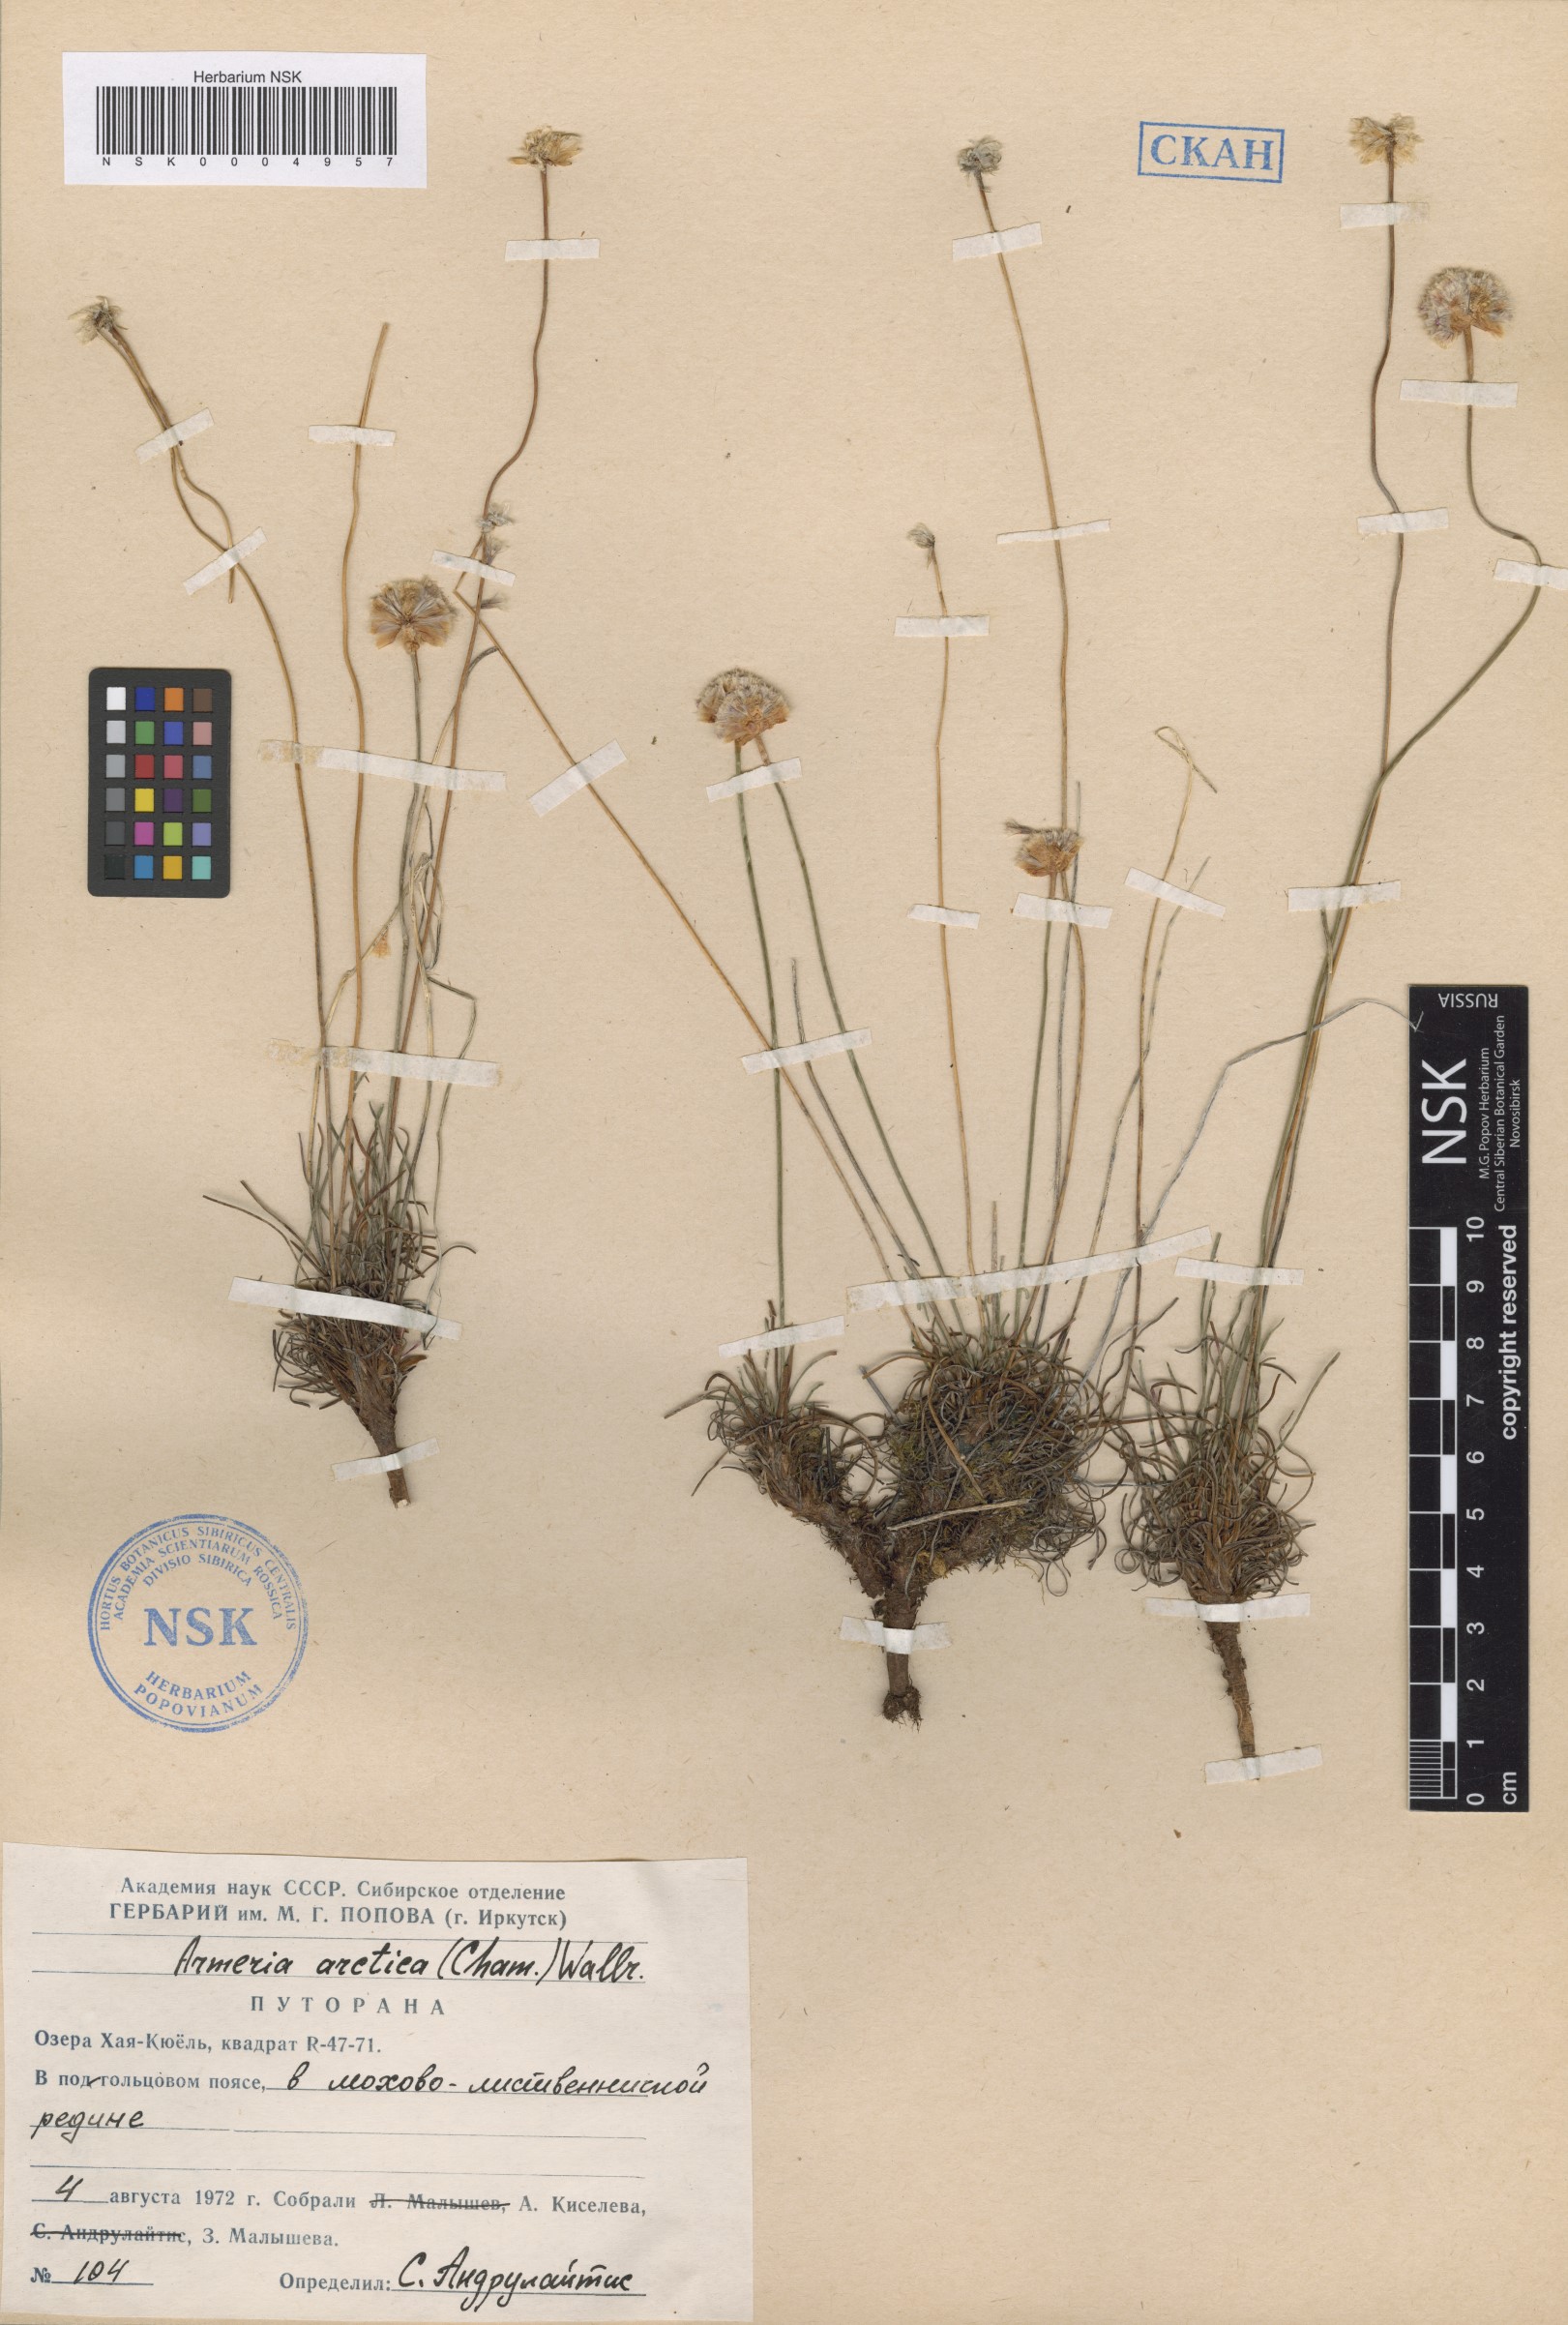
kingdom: Plantae
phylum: Tracheophyta
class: Magnoliopsida
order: Caryophyllales
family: Plumbaginaceae
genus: Armeria
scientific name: Armeria maritima
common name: Thrift
